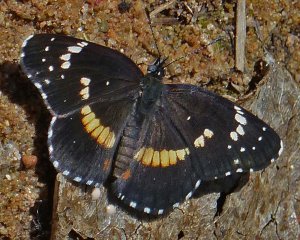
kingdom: Animalia
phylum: Arthropoda
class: Insecta
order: Lepidoptera
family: Nymphalidae
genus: Chlosyne
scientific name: Chlosyne lacinia
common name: Bordered Patch
